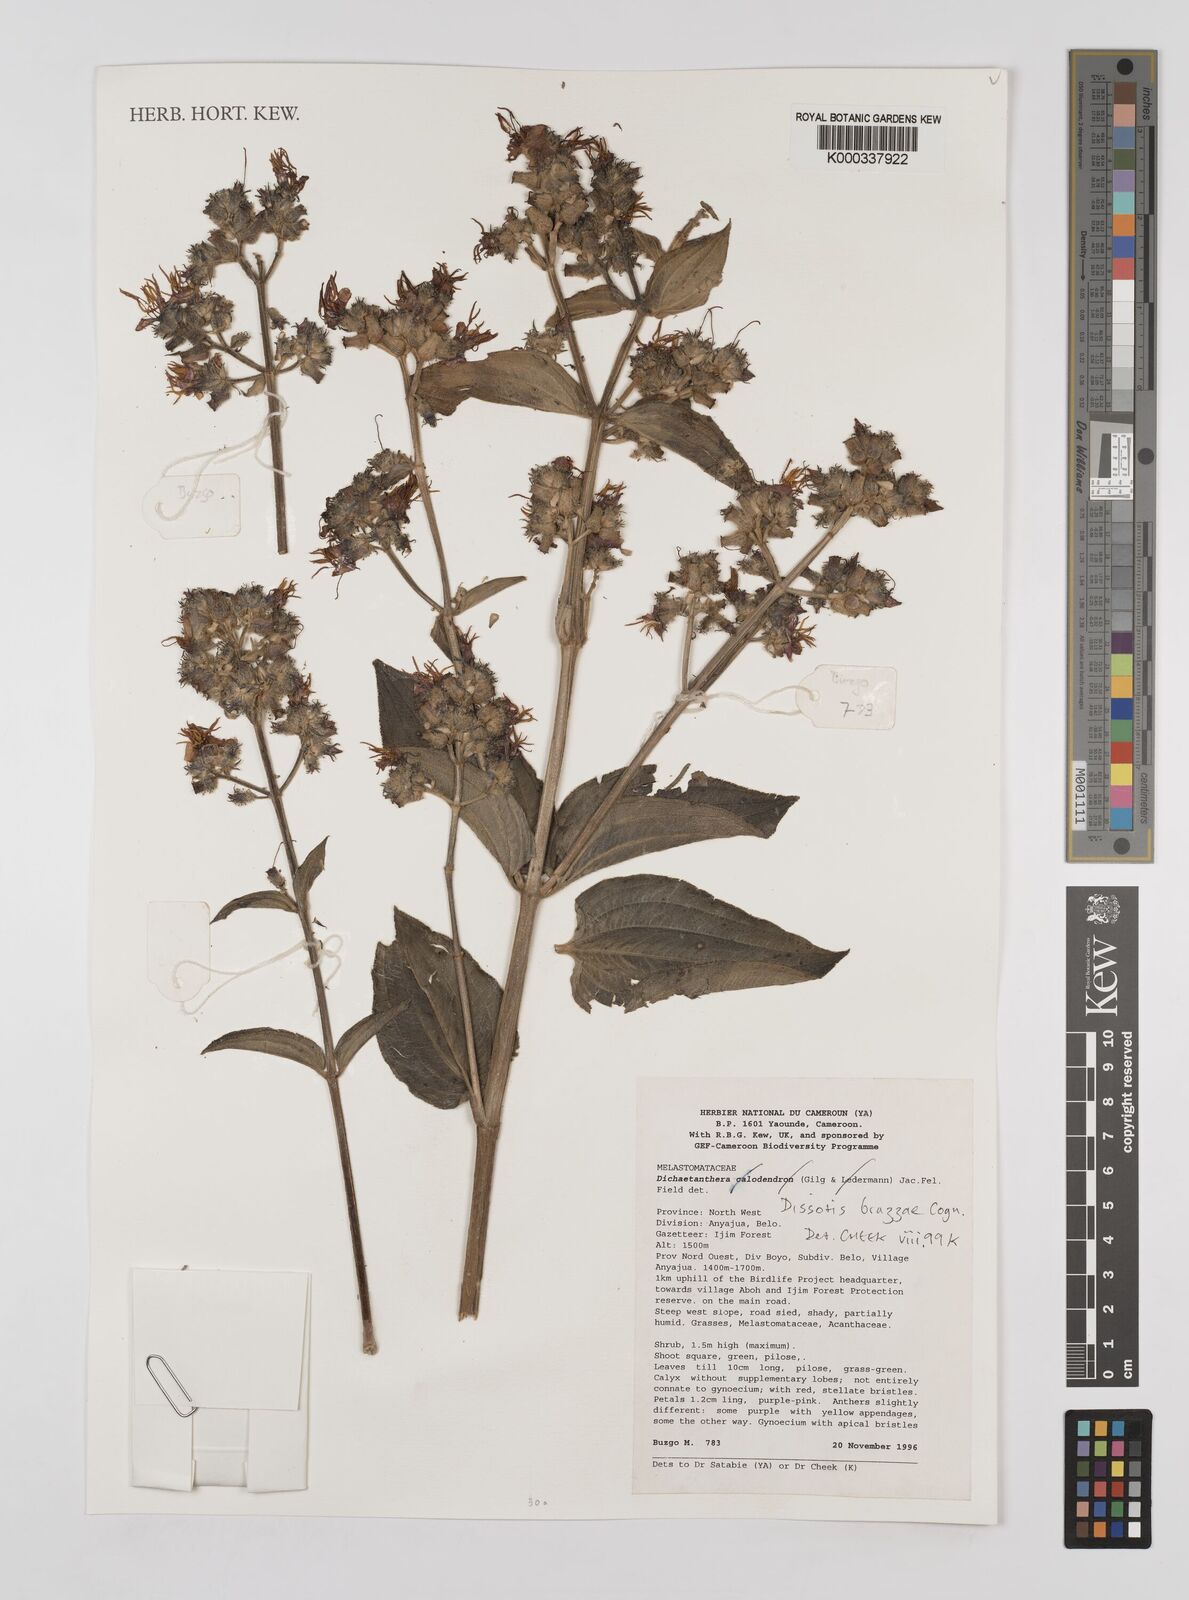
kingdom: Plantae
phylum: Tracheophyta
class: Magnoliopsida
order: Myrtales
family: Melastomataceae
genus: Dupineta
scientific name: Dupineta brazzae
